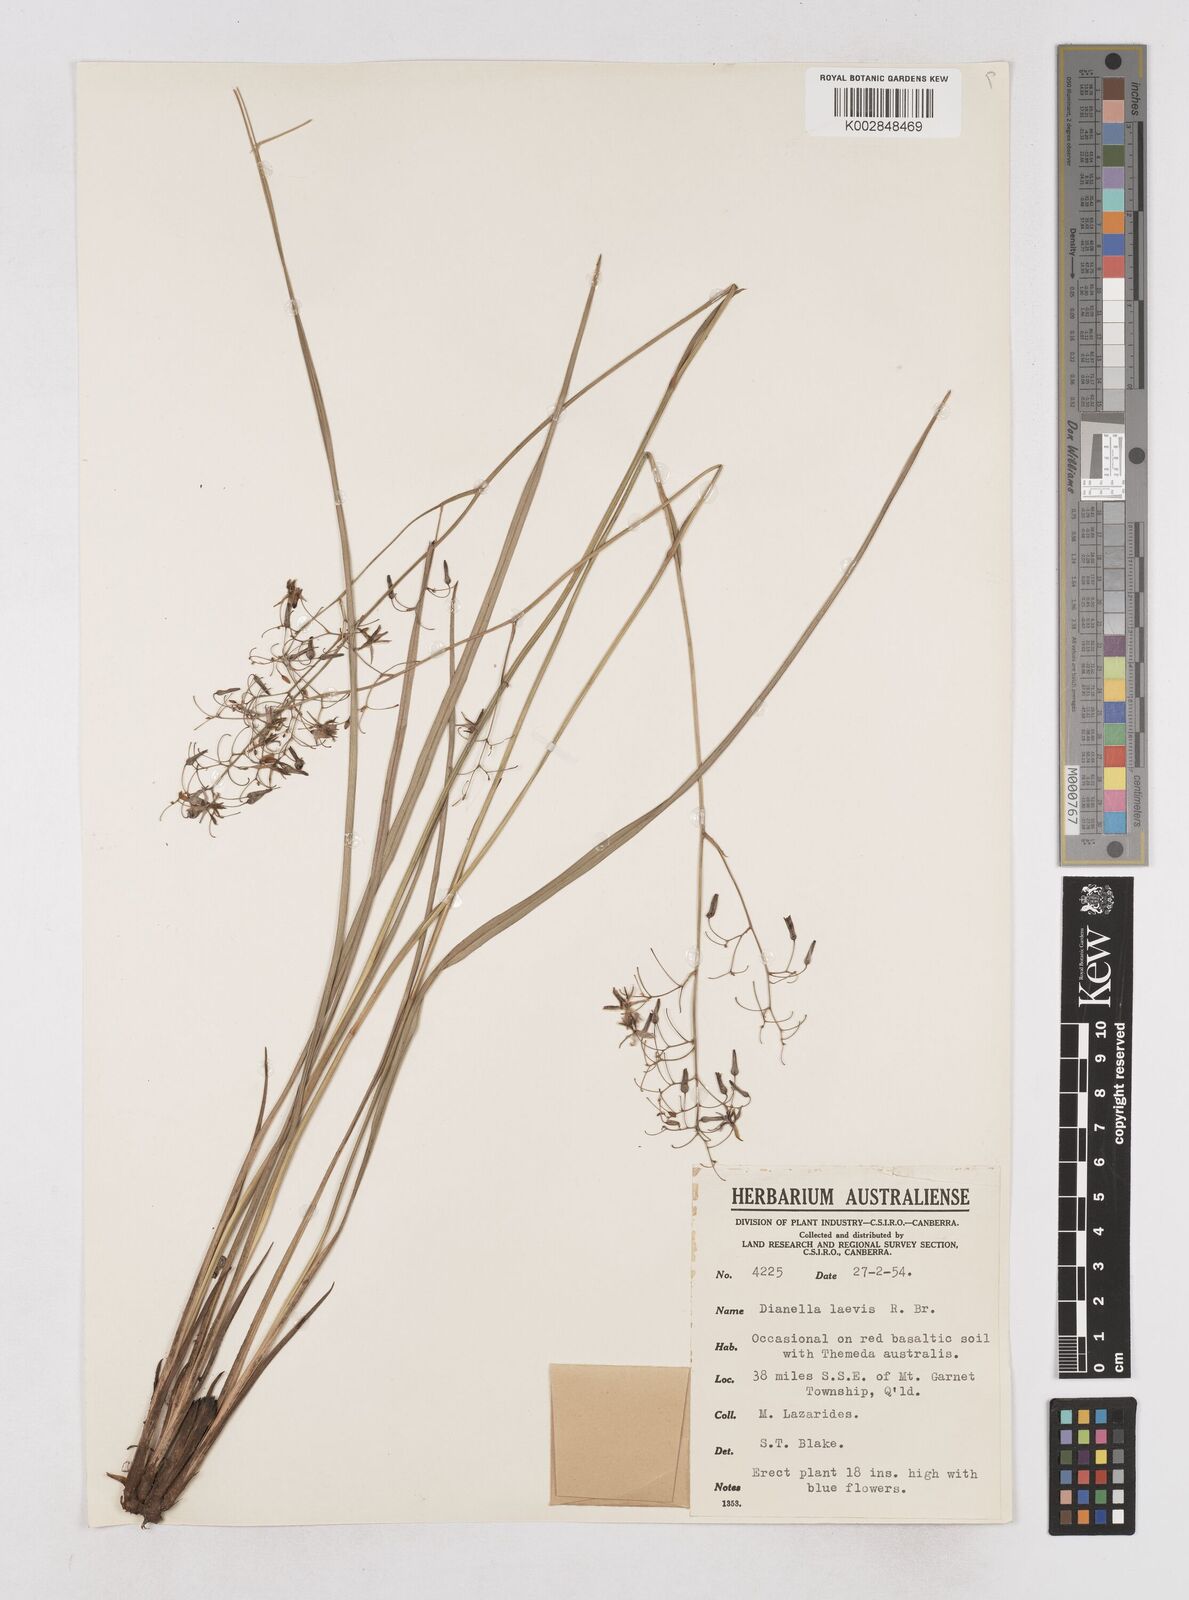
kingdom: Plantae
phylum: Tracheophyta
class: Liliopsida
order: Asparagales
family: Asphodelaceae
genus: Dianella
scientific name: Dianella longifolia
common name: Blue flax-lily
